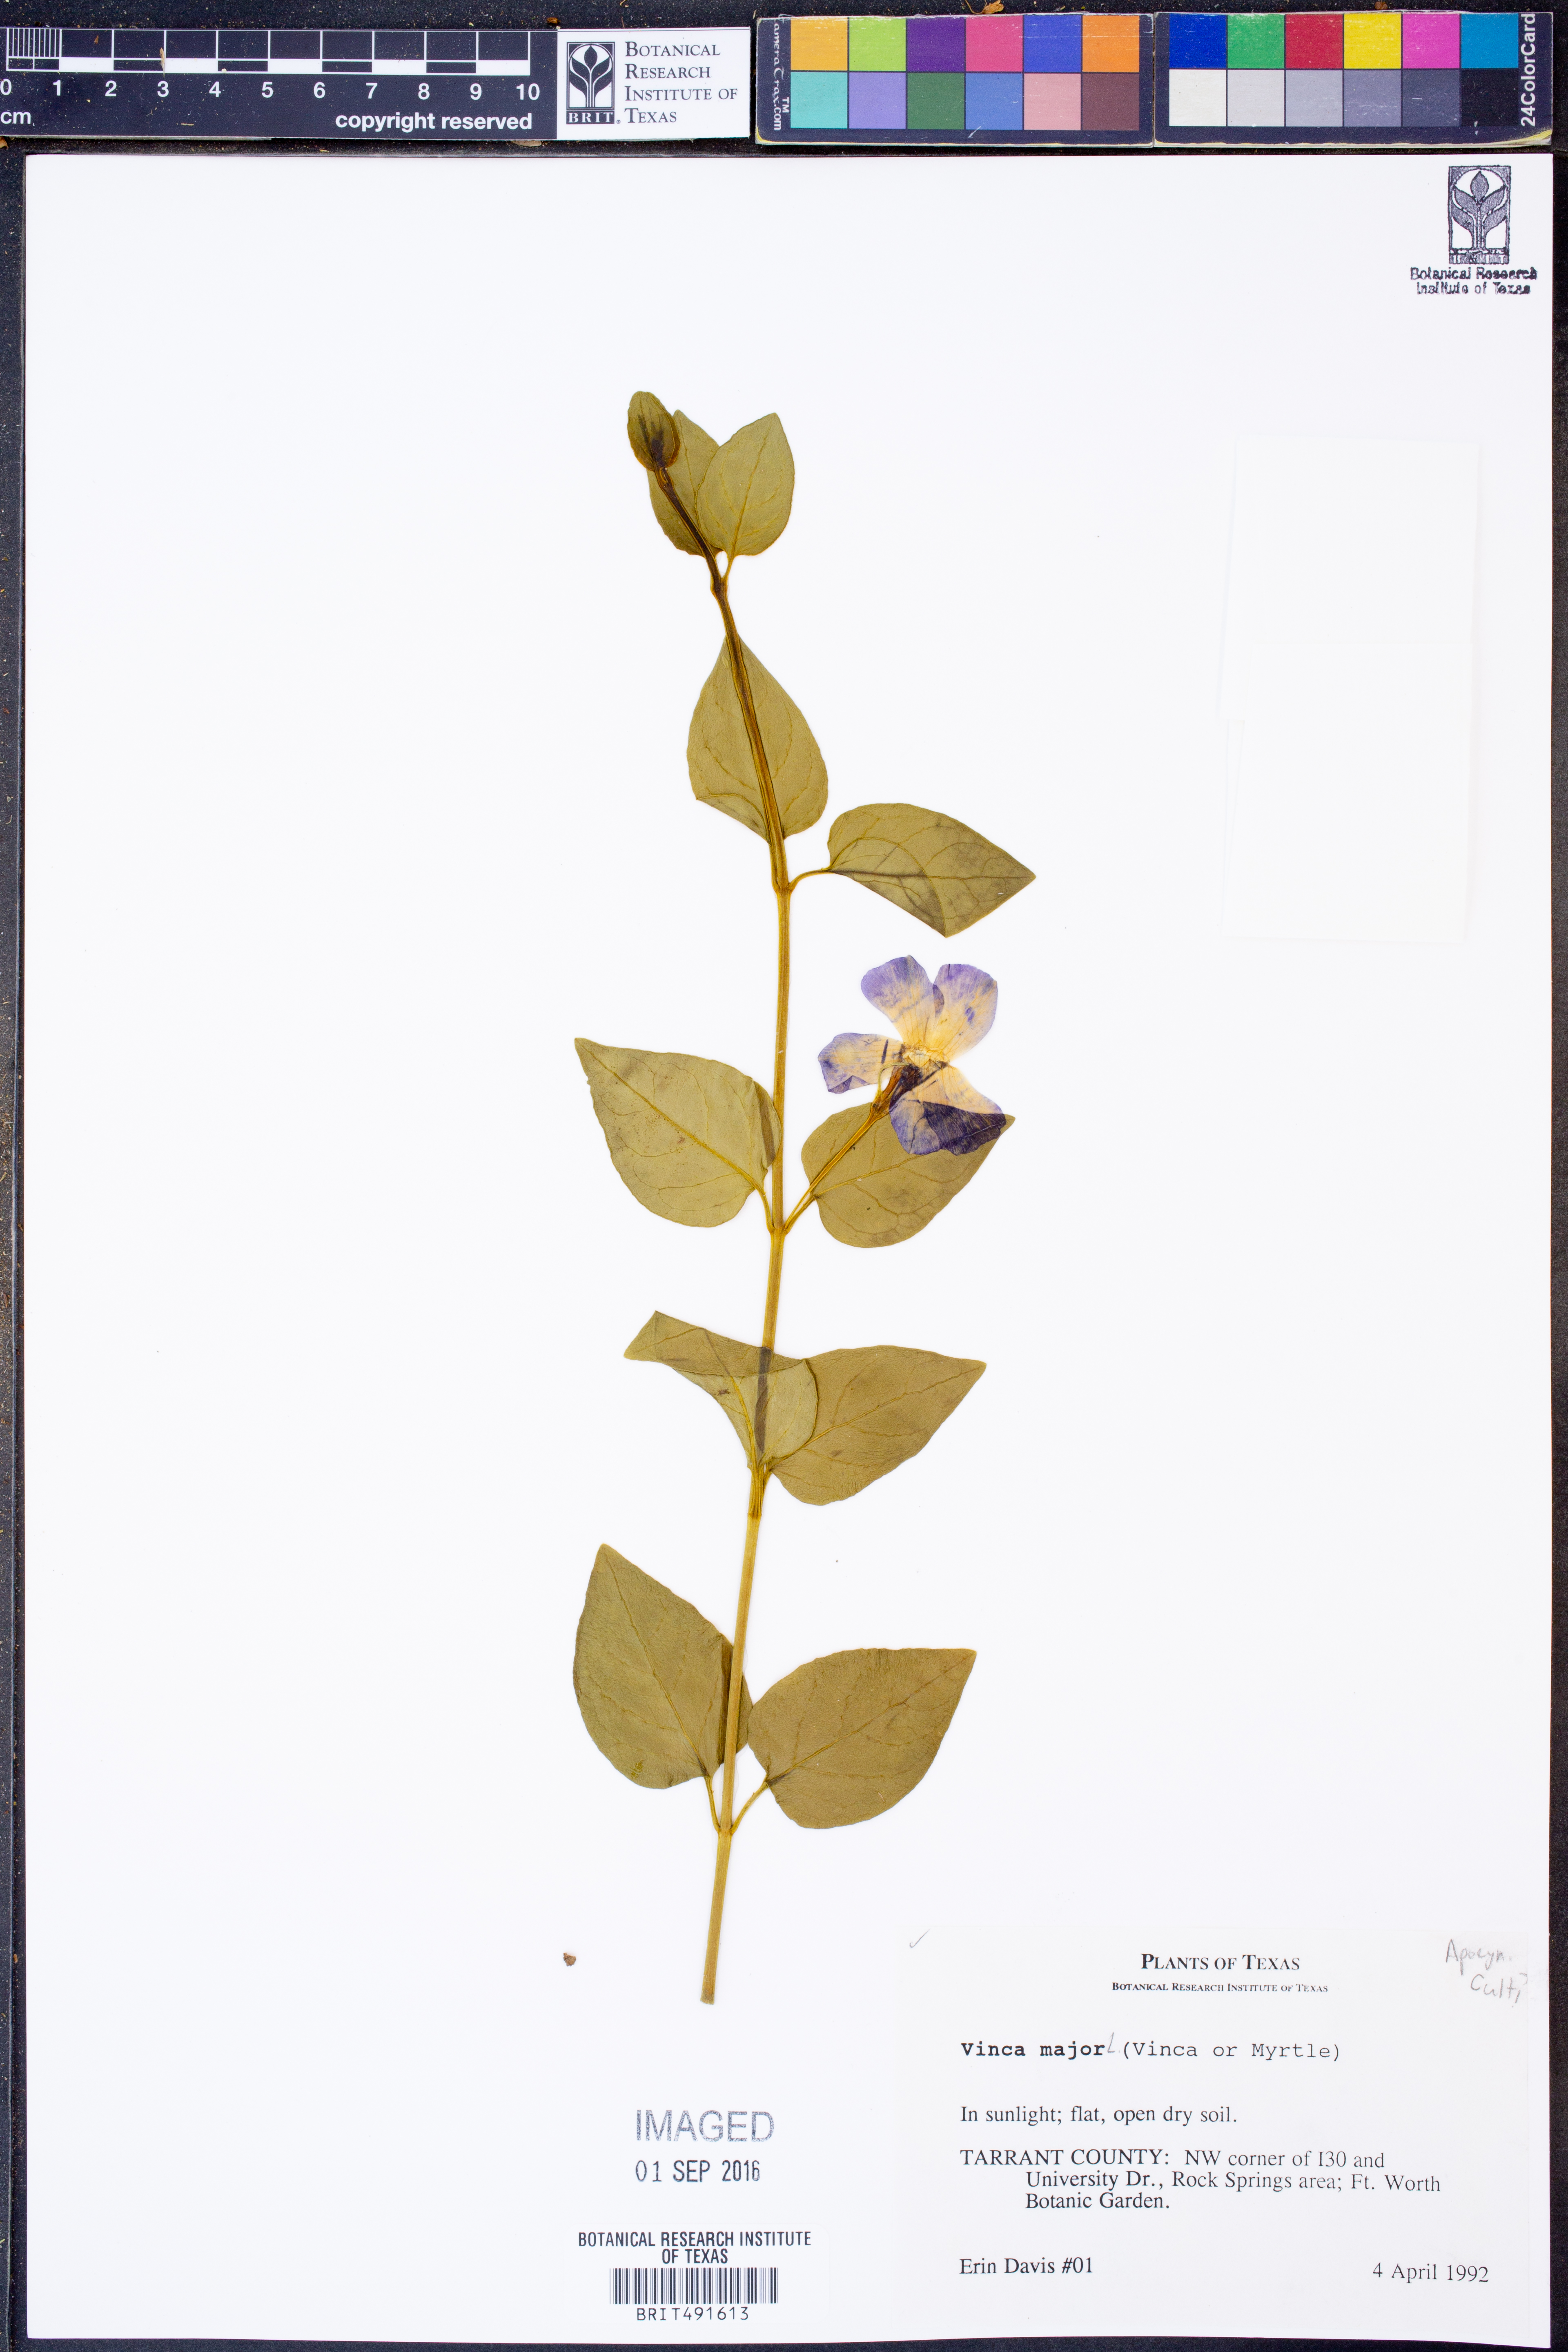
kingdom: Plantae
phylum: Tracheophyta
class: Magnoliopsida
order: Gentianales
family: Apocynaceae
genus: Vinca
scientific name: Vinca major
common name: Greater periwinkle
